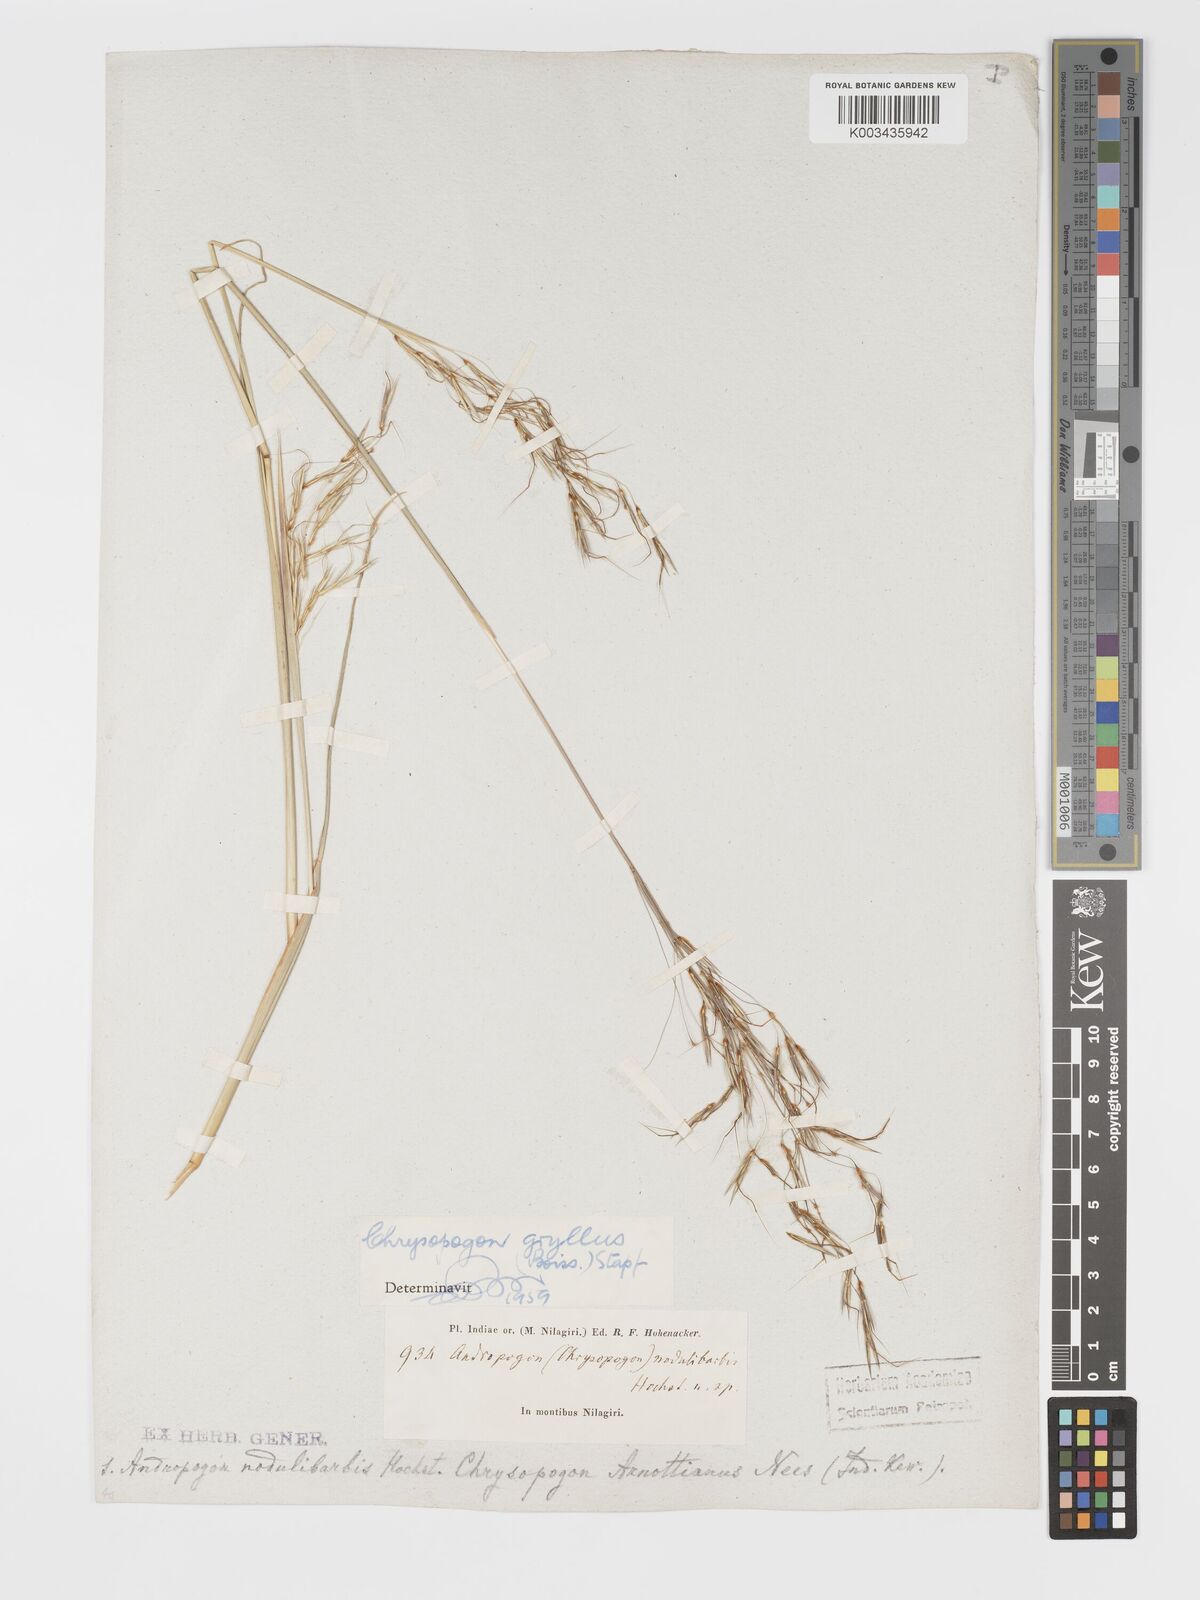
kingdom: Plantae
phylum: Tracheophyta
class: Liliopsida
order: Poales
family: Poaceae
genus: Chrysopogon
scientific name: Chrysopogon gryllus
